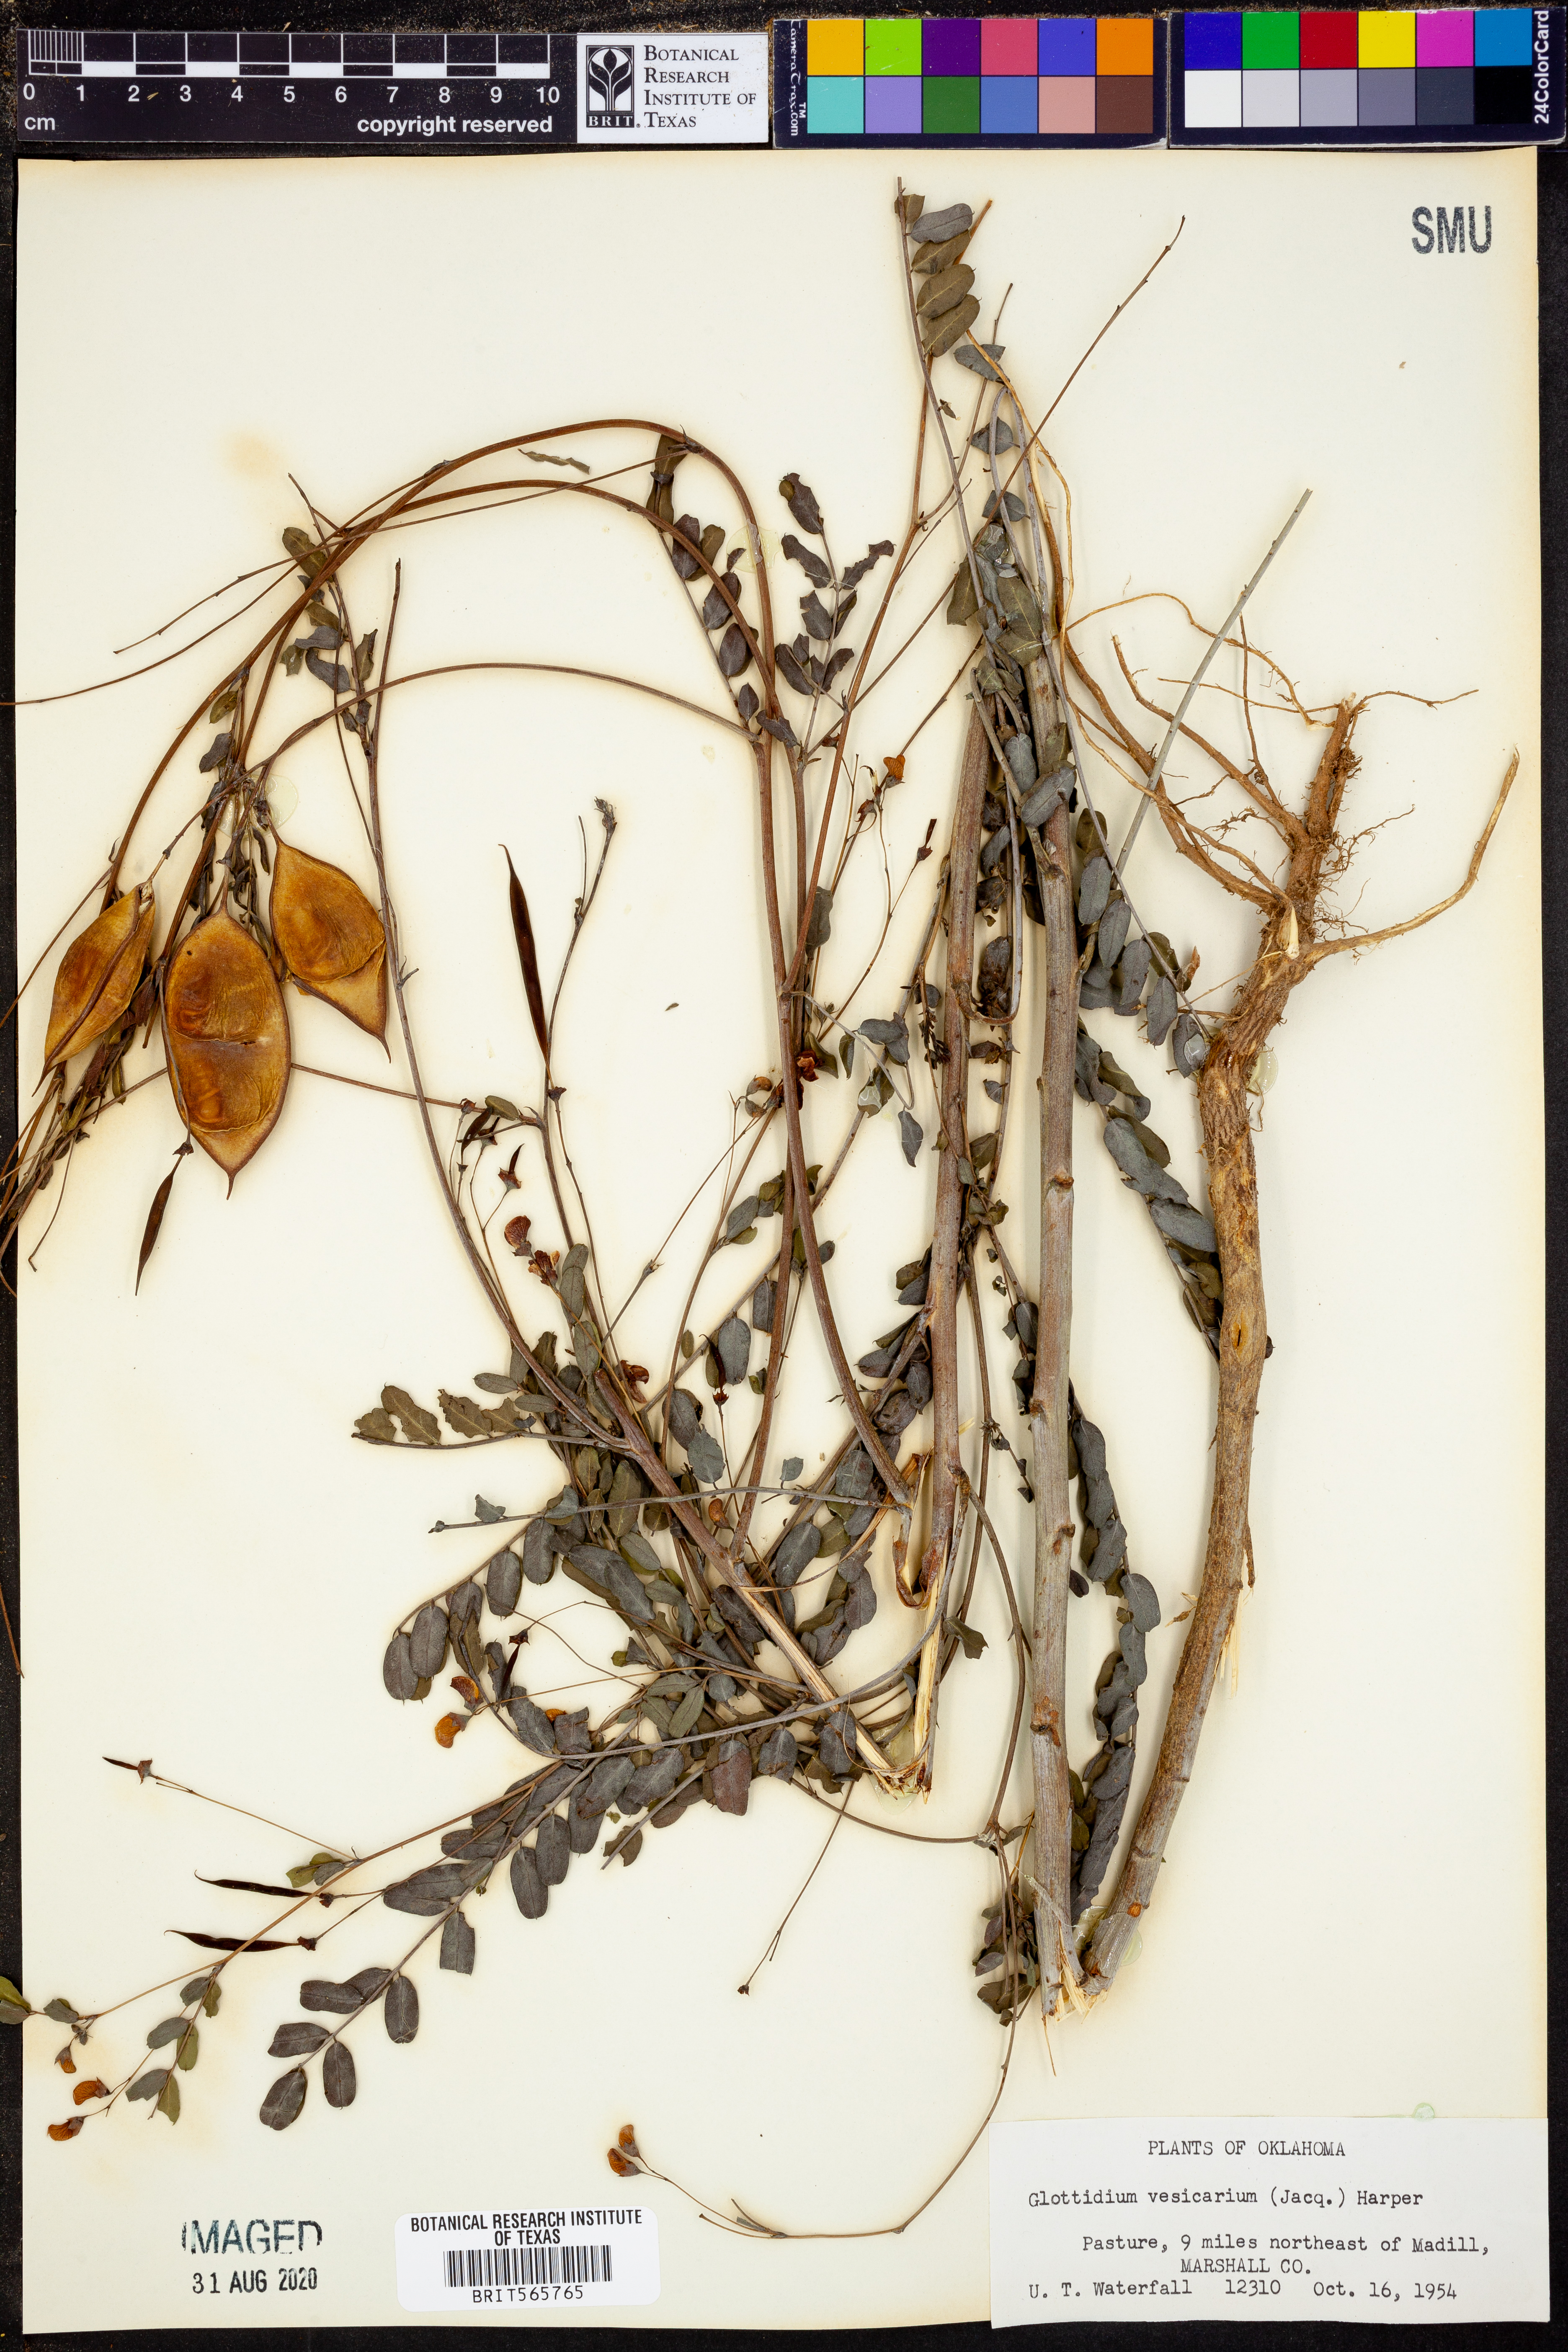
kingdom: Plantae
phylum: Tracheophyta
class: Magnoliopsida
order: Fabales
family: Fabaceae
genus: Sesbania
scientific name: Sesbania vesicaria
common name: Bagpod
